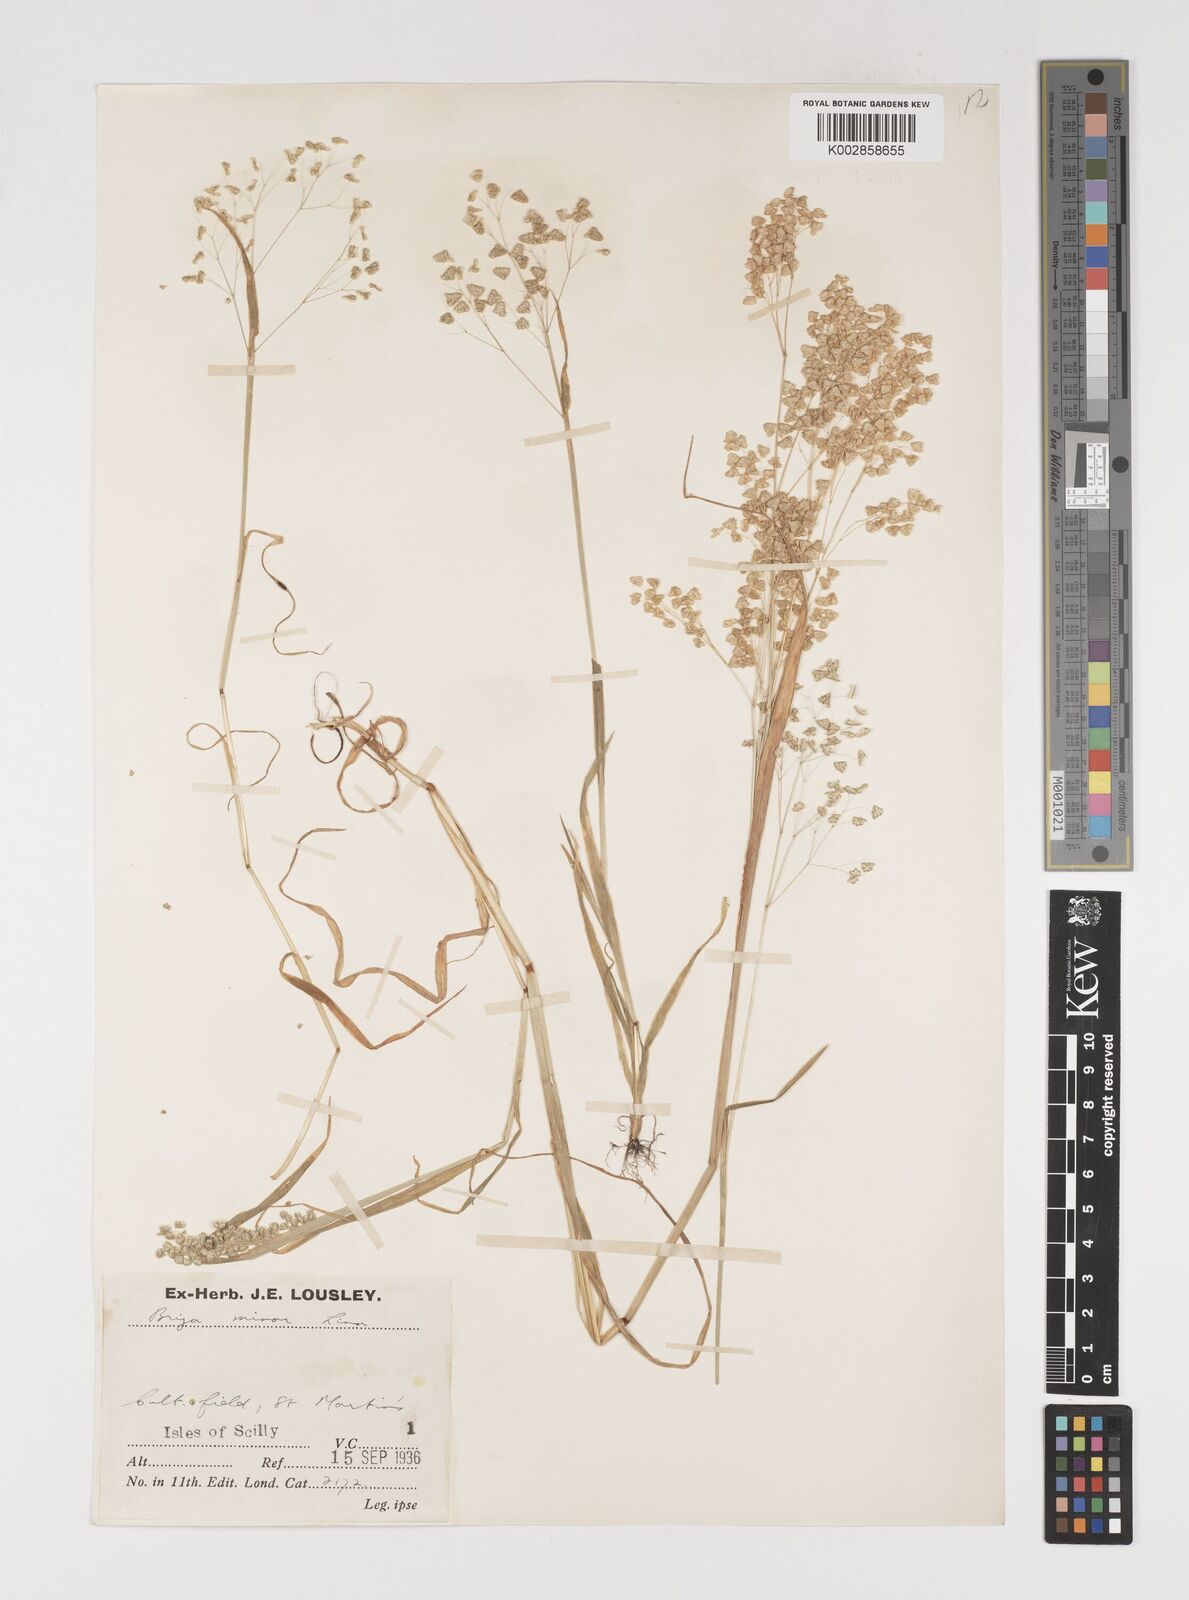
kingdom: Plantae
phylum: Tracheophyta
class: Liliopsida
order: Poales
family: Poaceae
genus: Briza
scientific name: Briza minor
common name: Lesser quaking-grass
